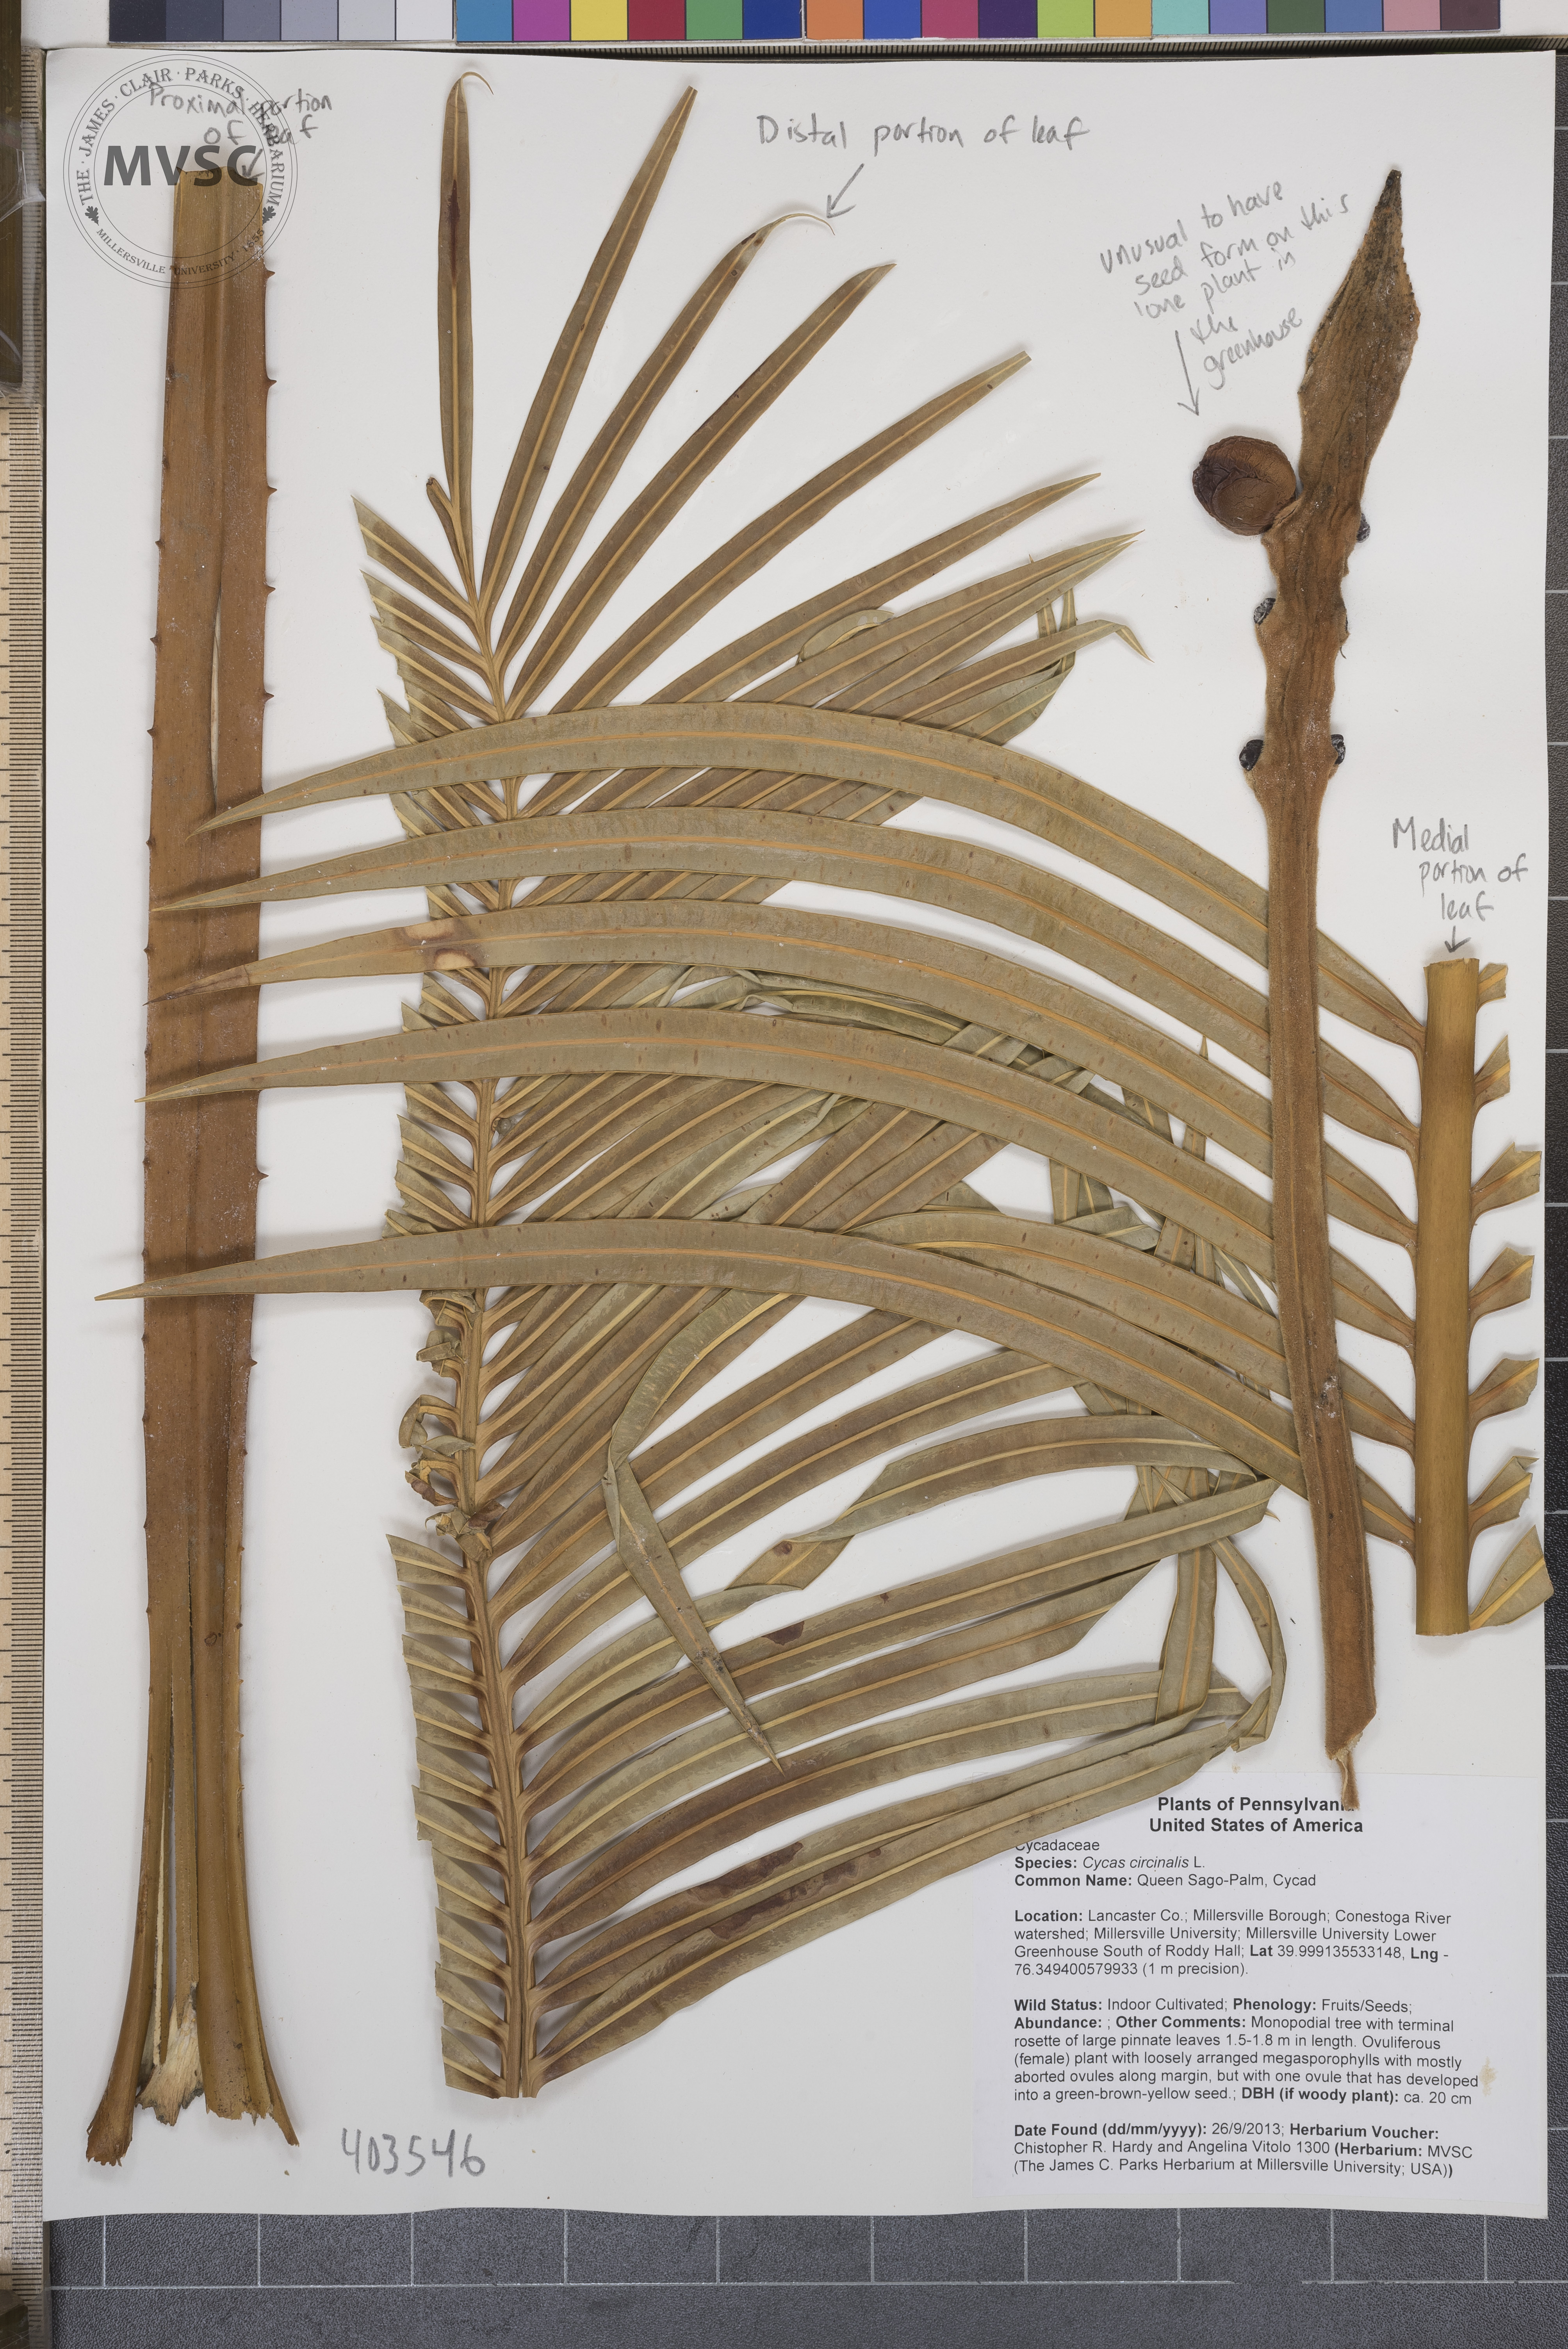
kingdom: Plantae
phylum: Tracheophyta
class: Cycadopsida
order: Cycadales
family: Cycadaceae
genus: Cycas
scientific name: Cycas circinalis
